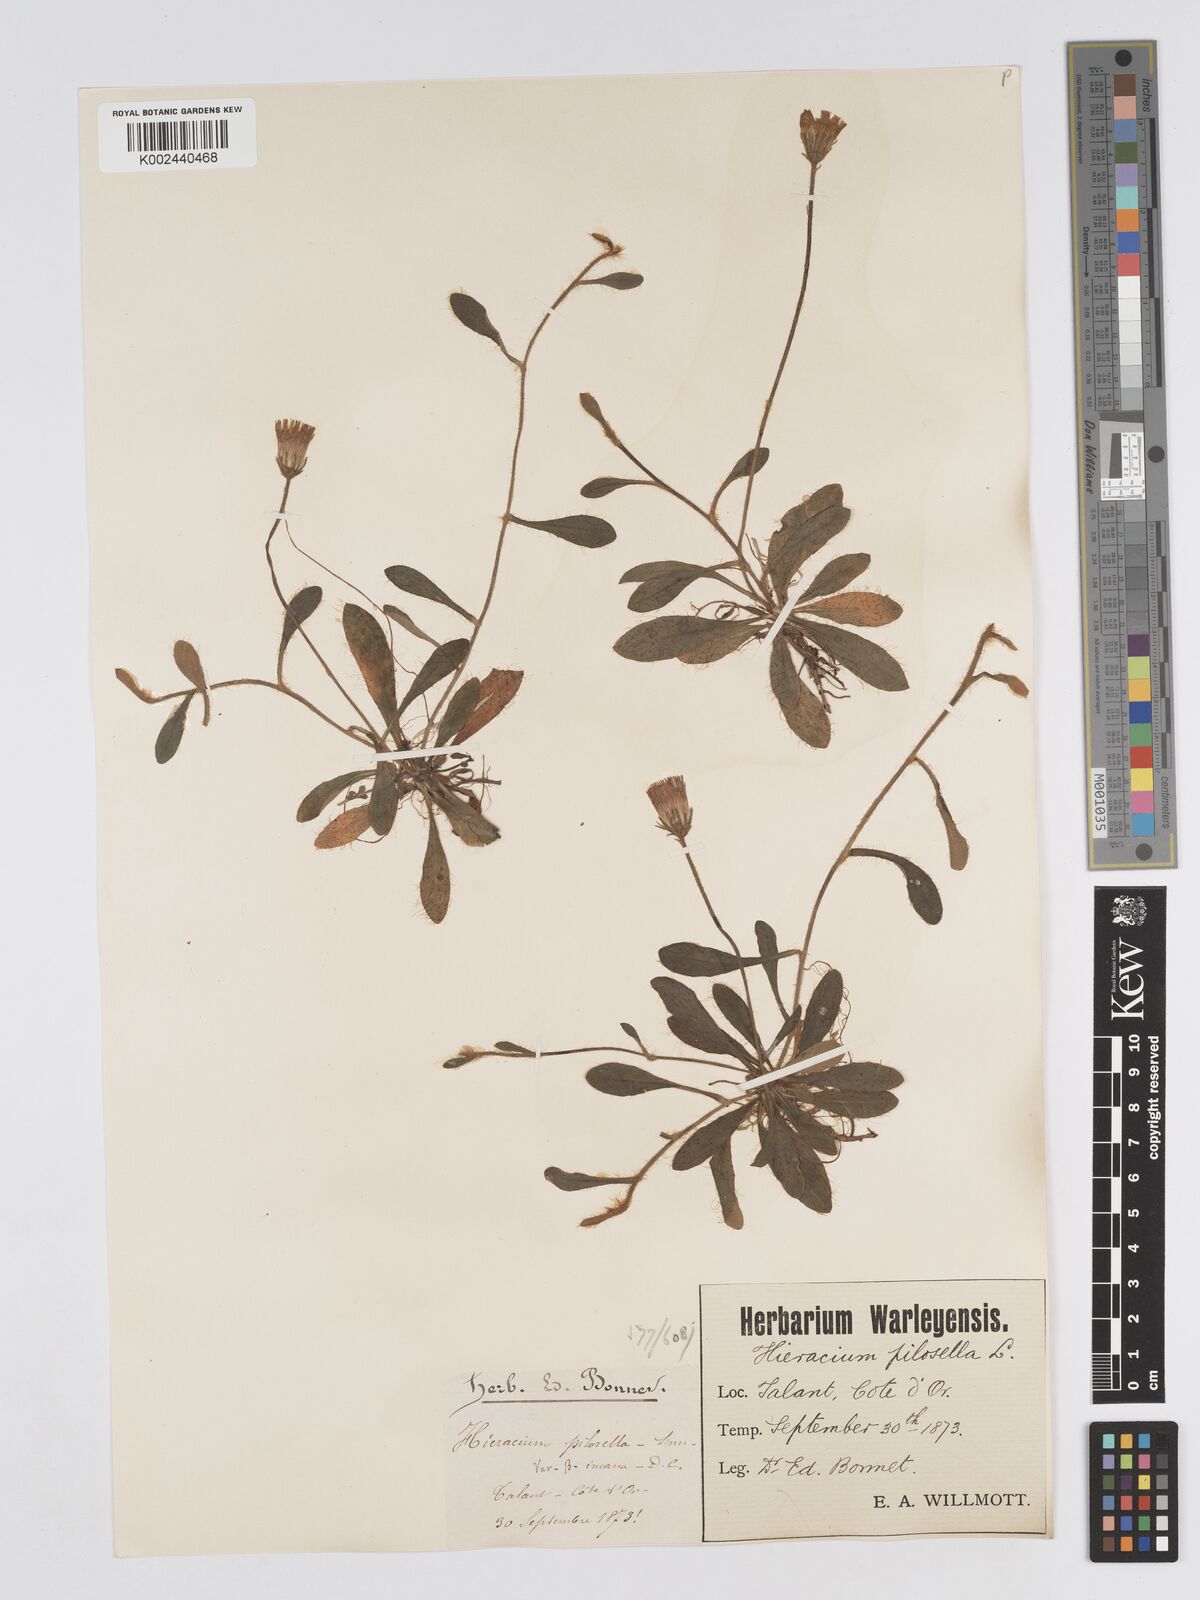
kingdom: Plantae
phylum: Tracheophyta
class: Magnoliopsida
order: Asterales
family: Asteraceae
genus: Pilosella
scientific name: Pilosella velutina
